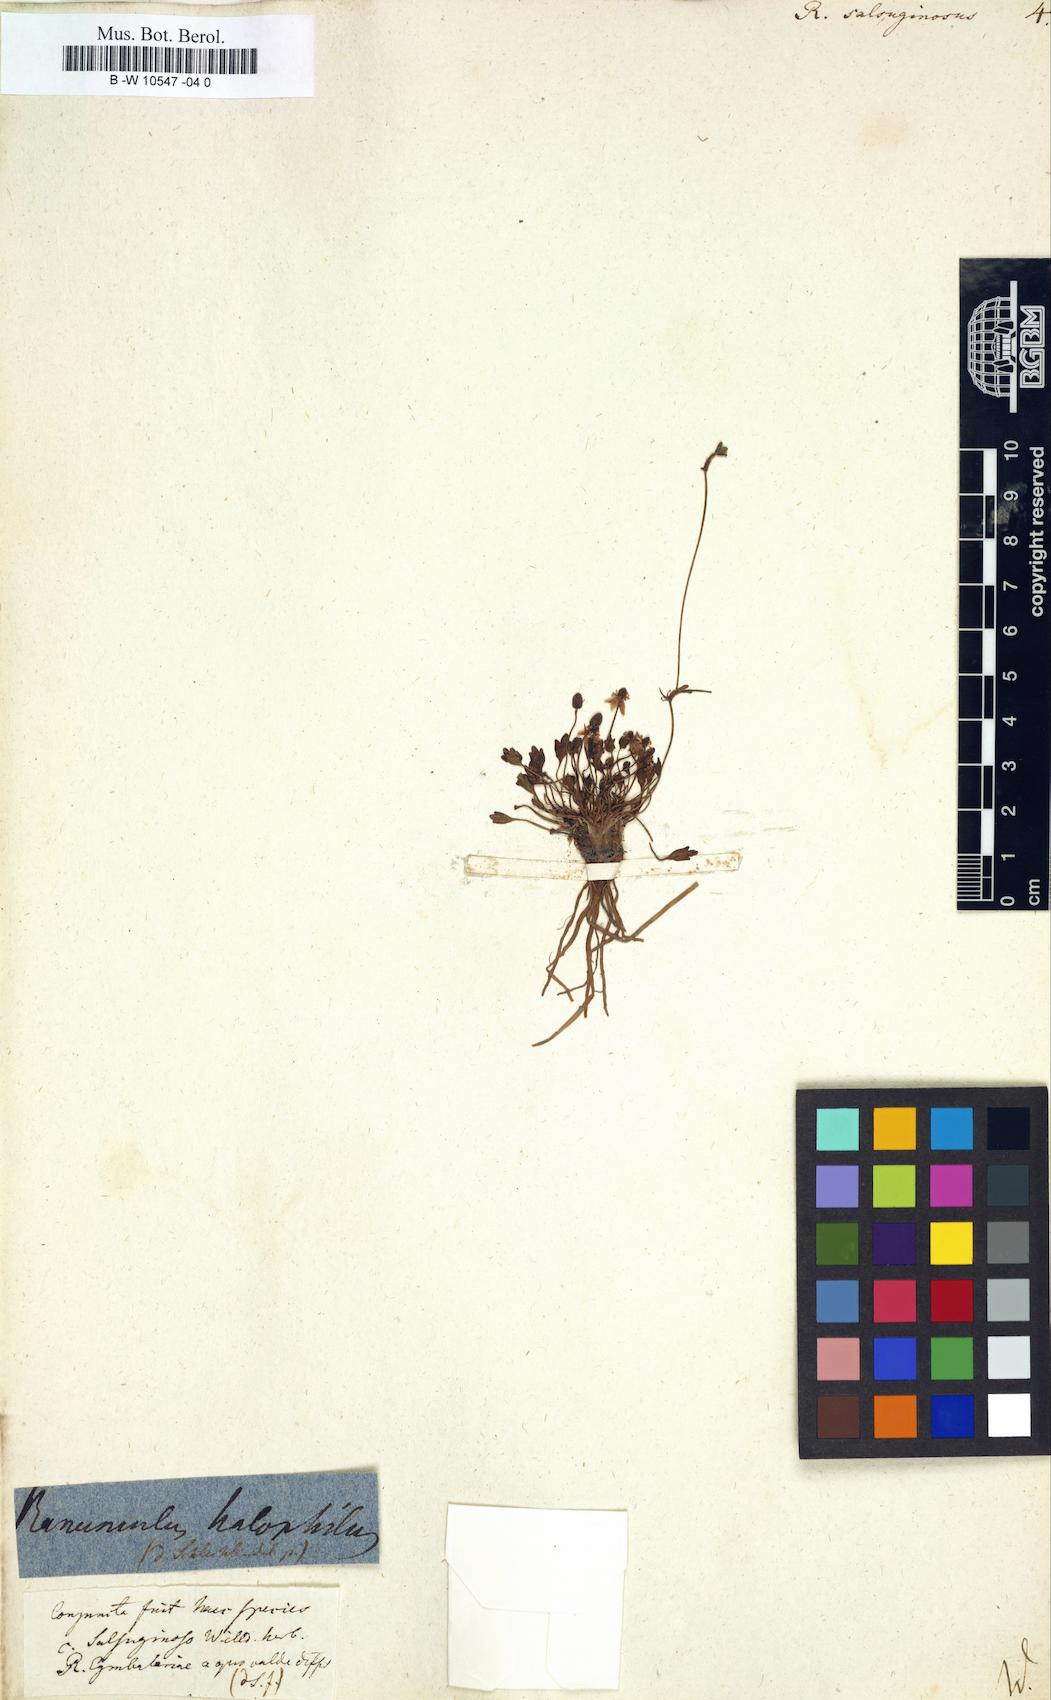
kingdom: Plantae
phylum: Tracheophyta
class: Magnoliopsida
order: Ranunculales
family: Ranunculaceae
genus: Halerpestes
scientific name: Halerpestes ruthenica
